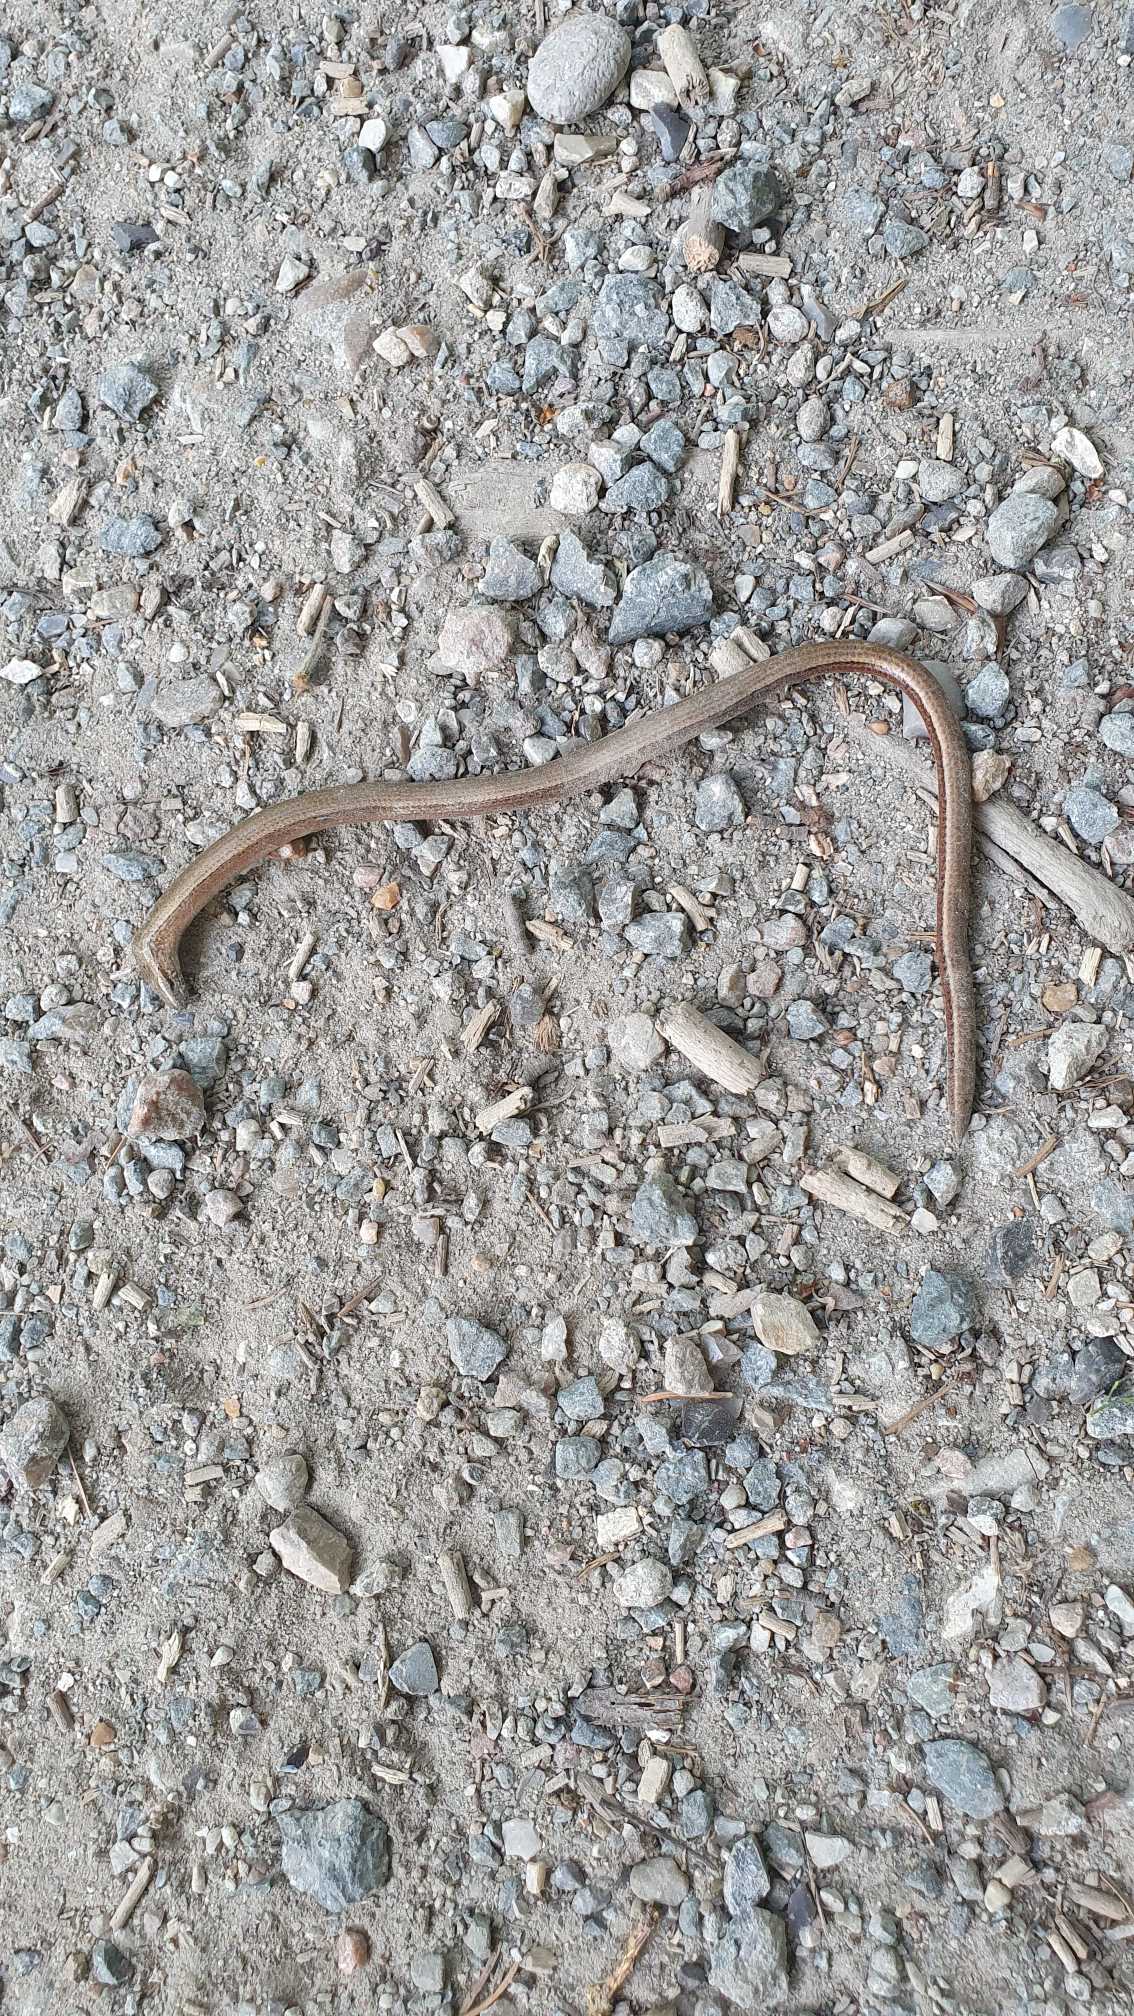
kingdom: Animalia
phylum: Chordata
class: Squamata
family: Anguidae
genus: Anguis
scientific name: Anguis fragilis
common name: Stålorm
